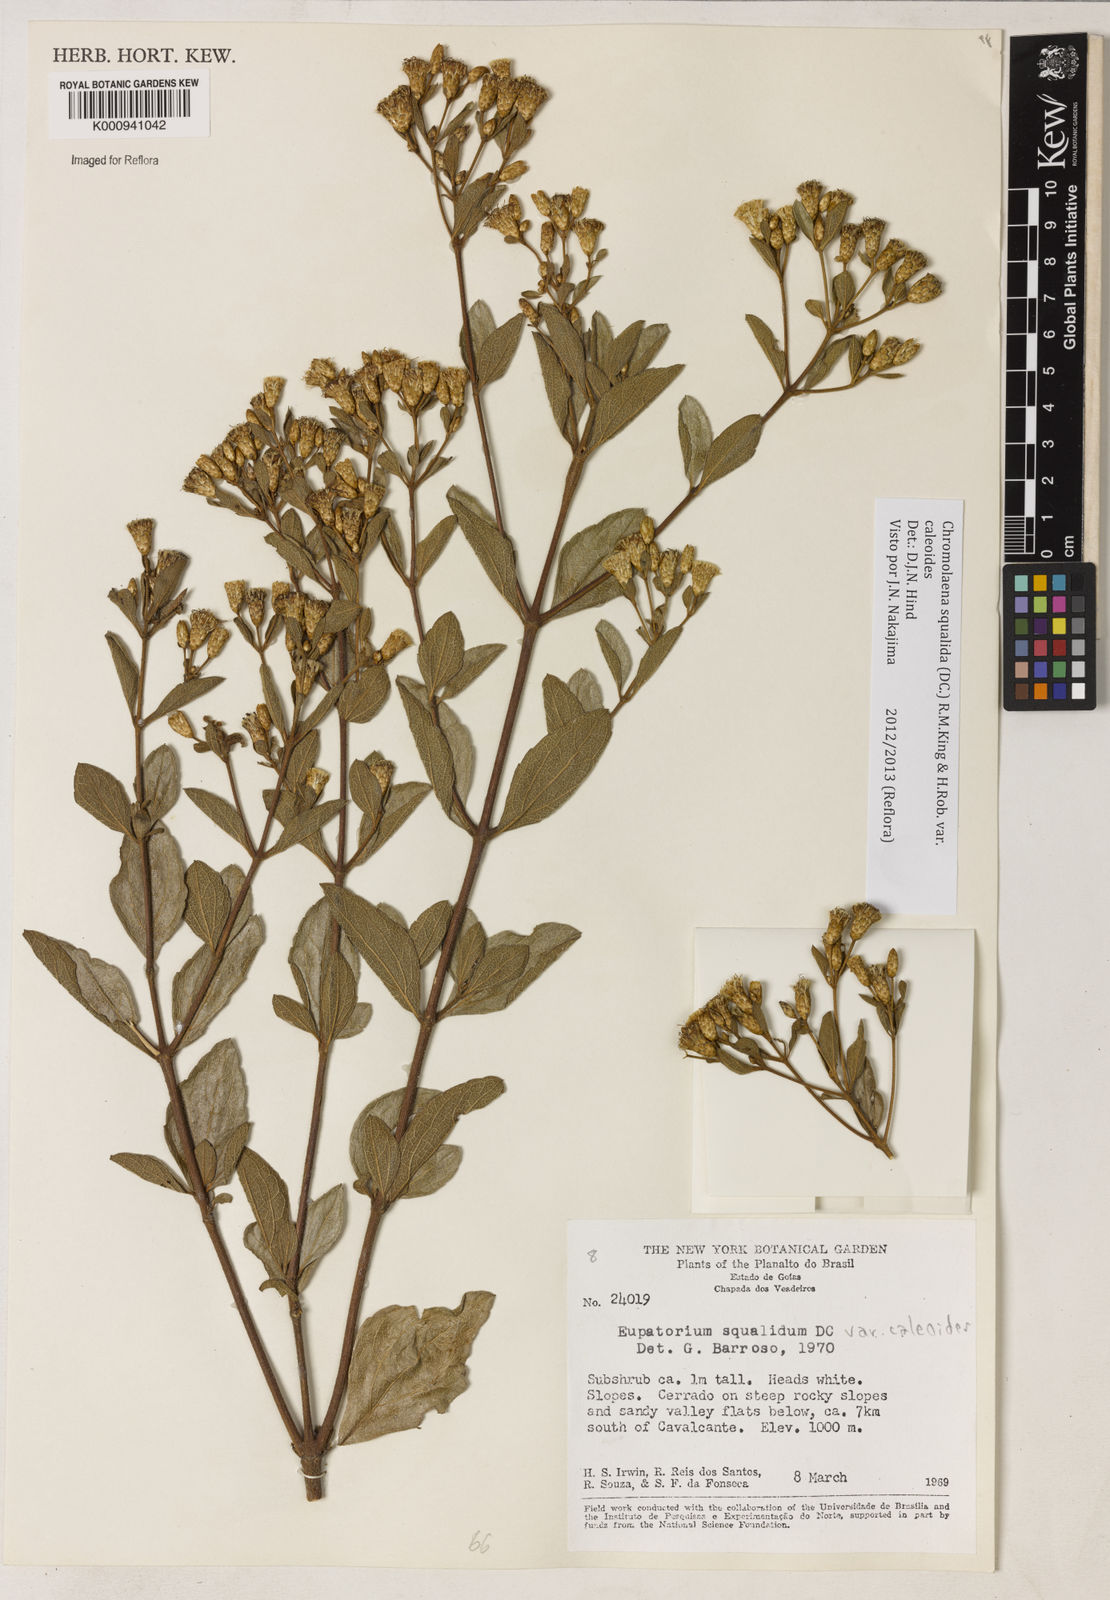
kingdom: Plantae
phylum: Tracheophyta
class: Magnoliopsida
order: Asterales
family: Asteraceae
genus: Chromolaena
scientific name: Chromolaena squalida
